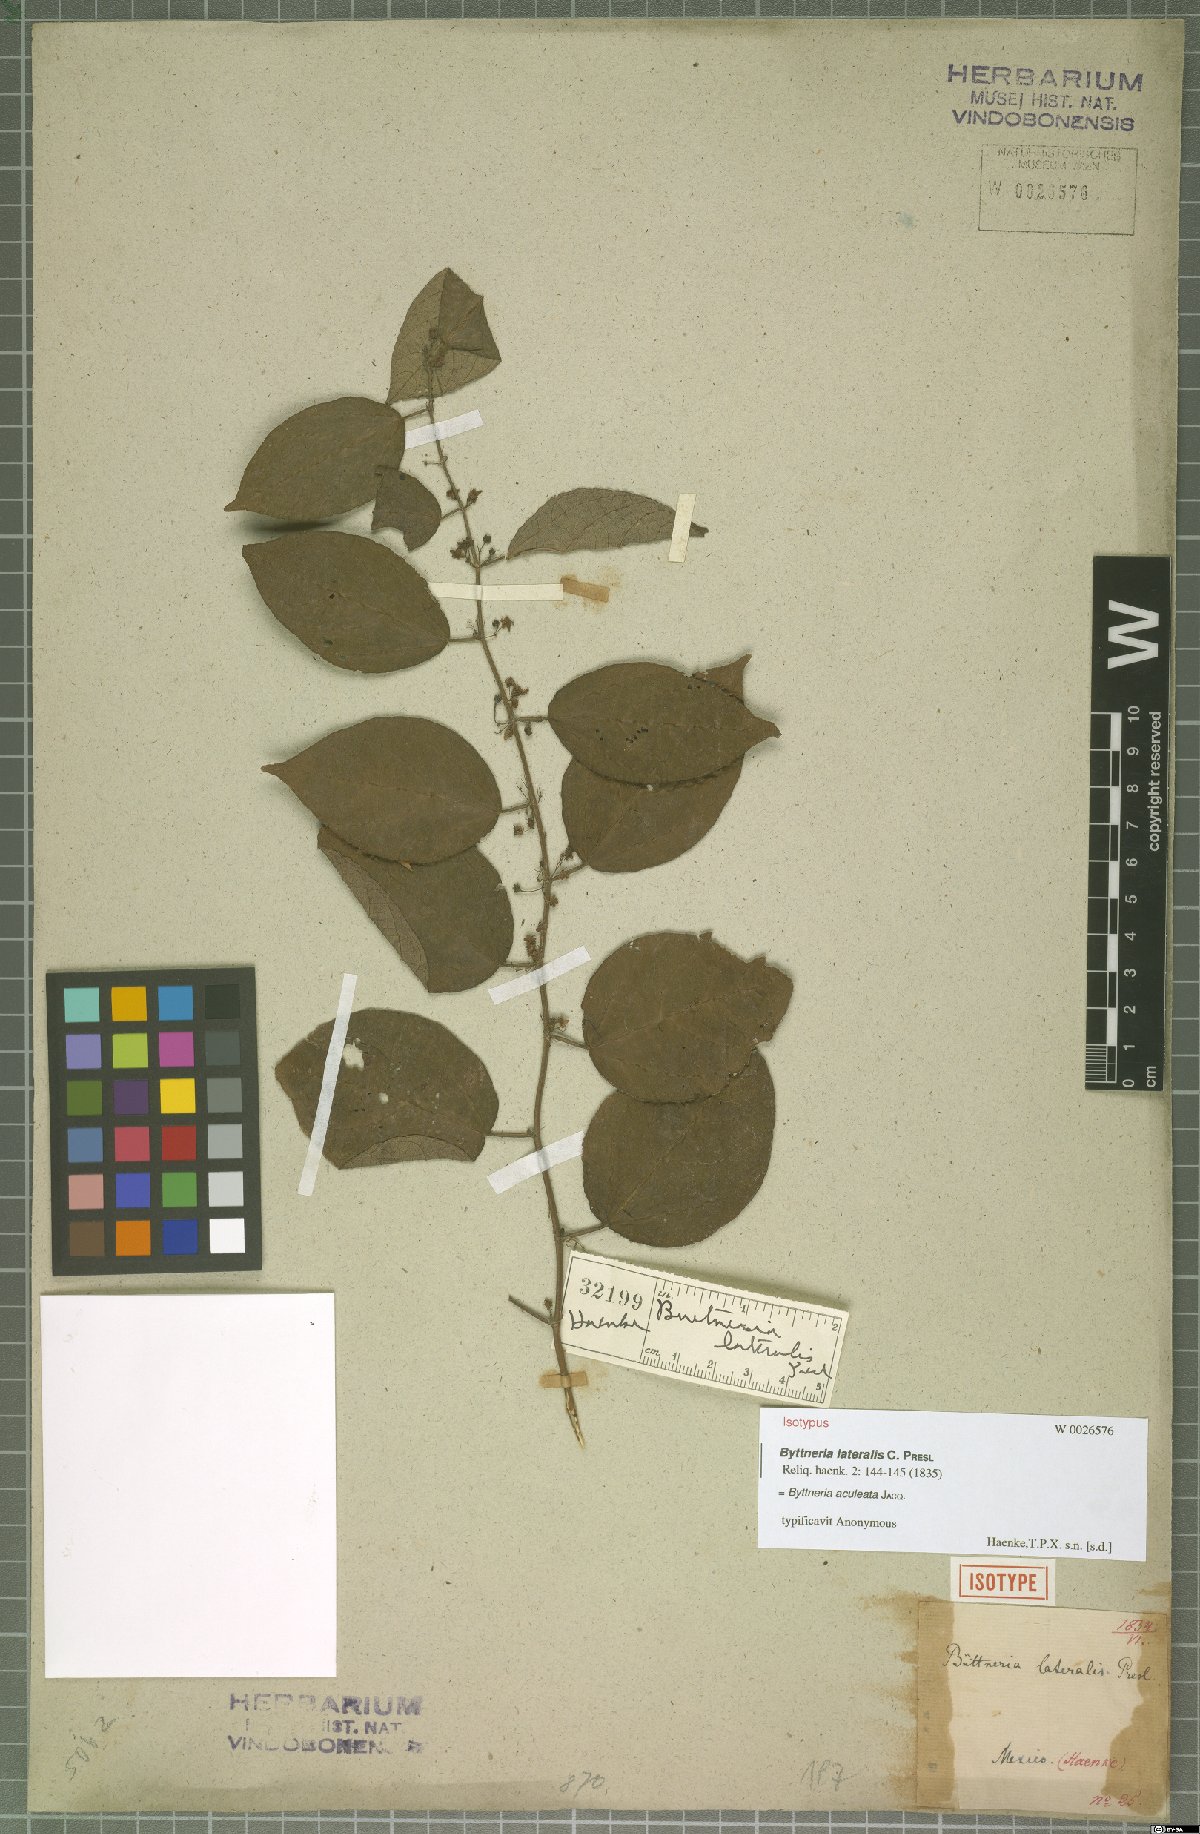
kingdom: Plantae
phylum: Tracheophyta
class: Magnoliopsida
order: Malvales
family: Malvaceae
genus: Byttneria
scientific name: Byttneria aculeata
